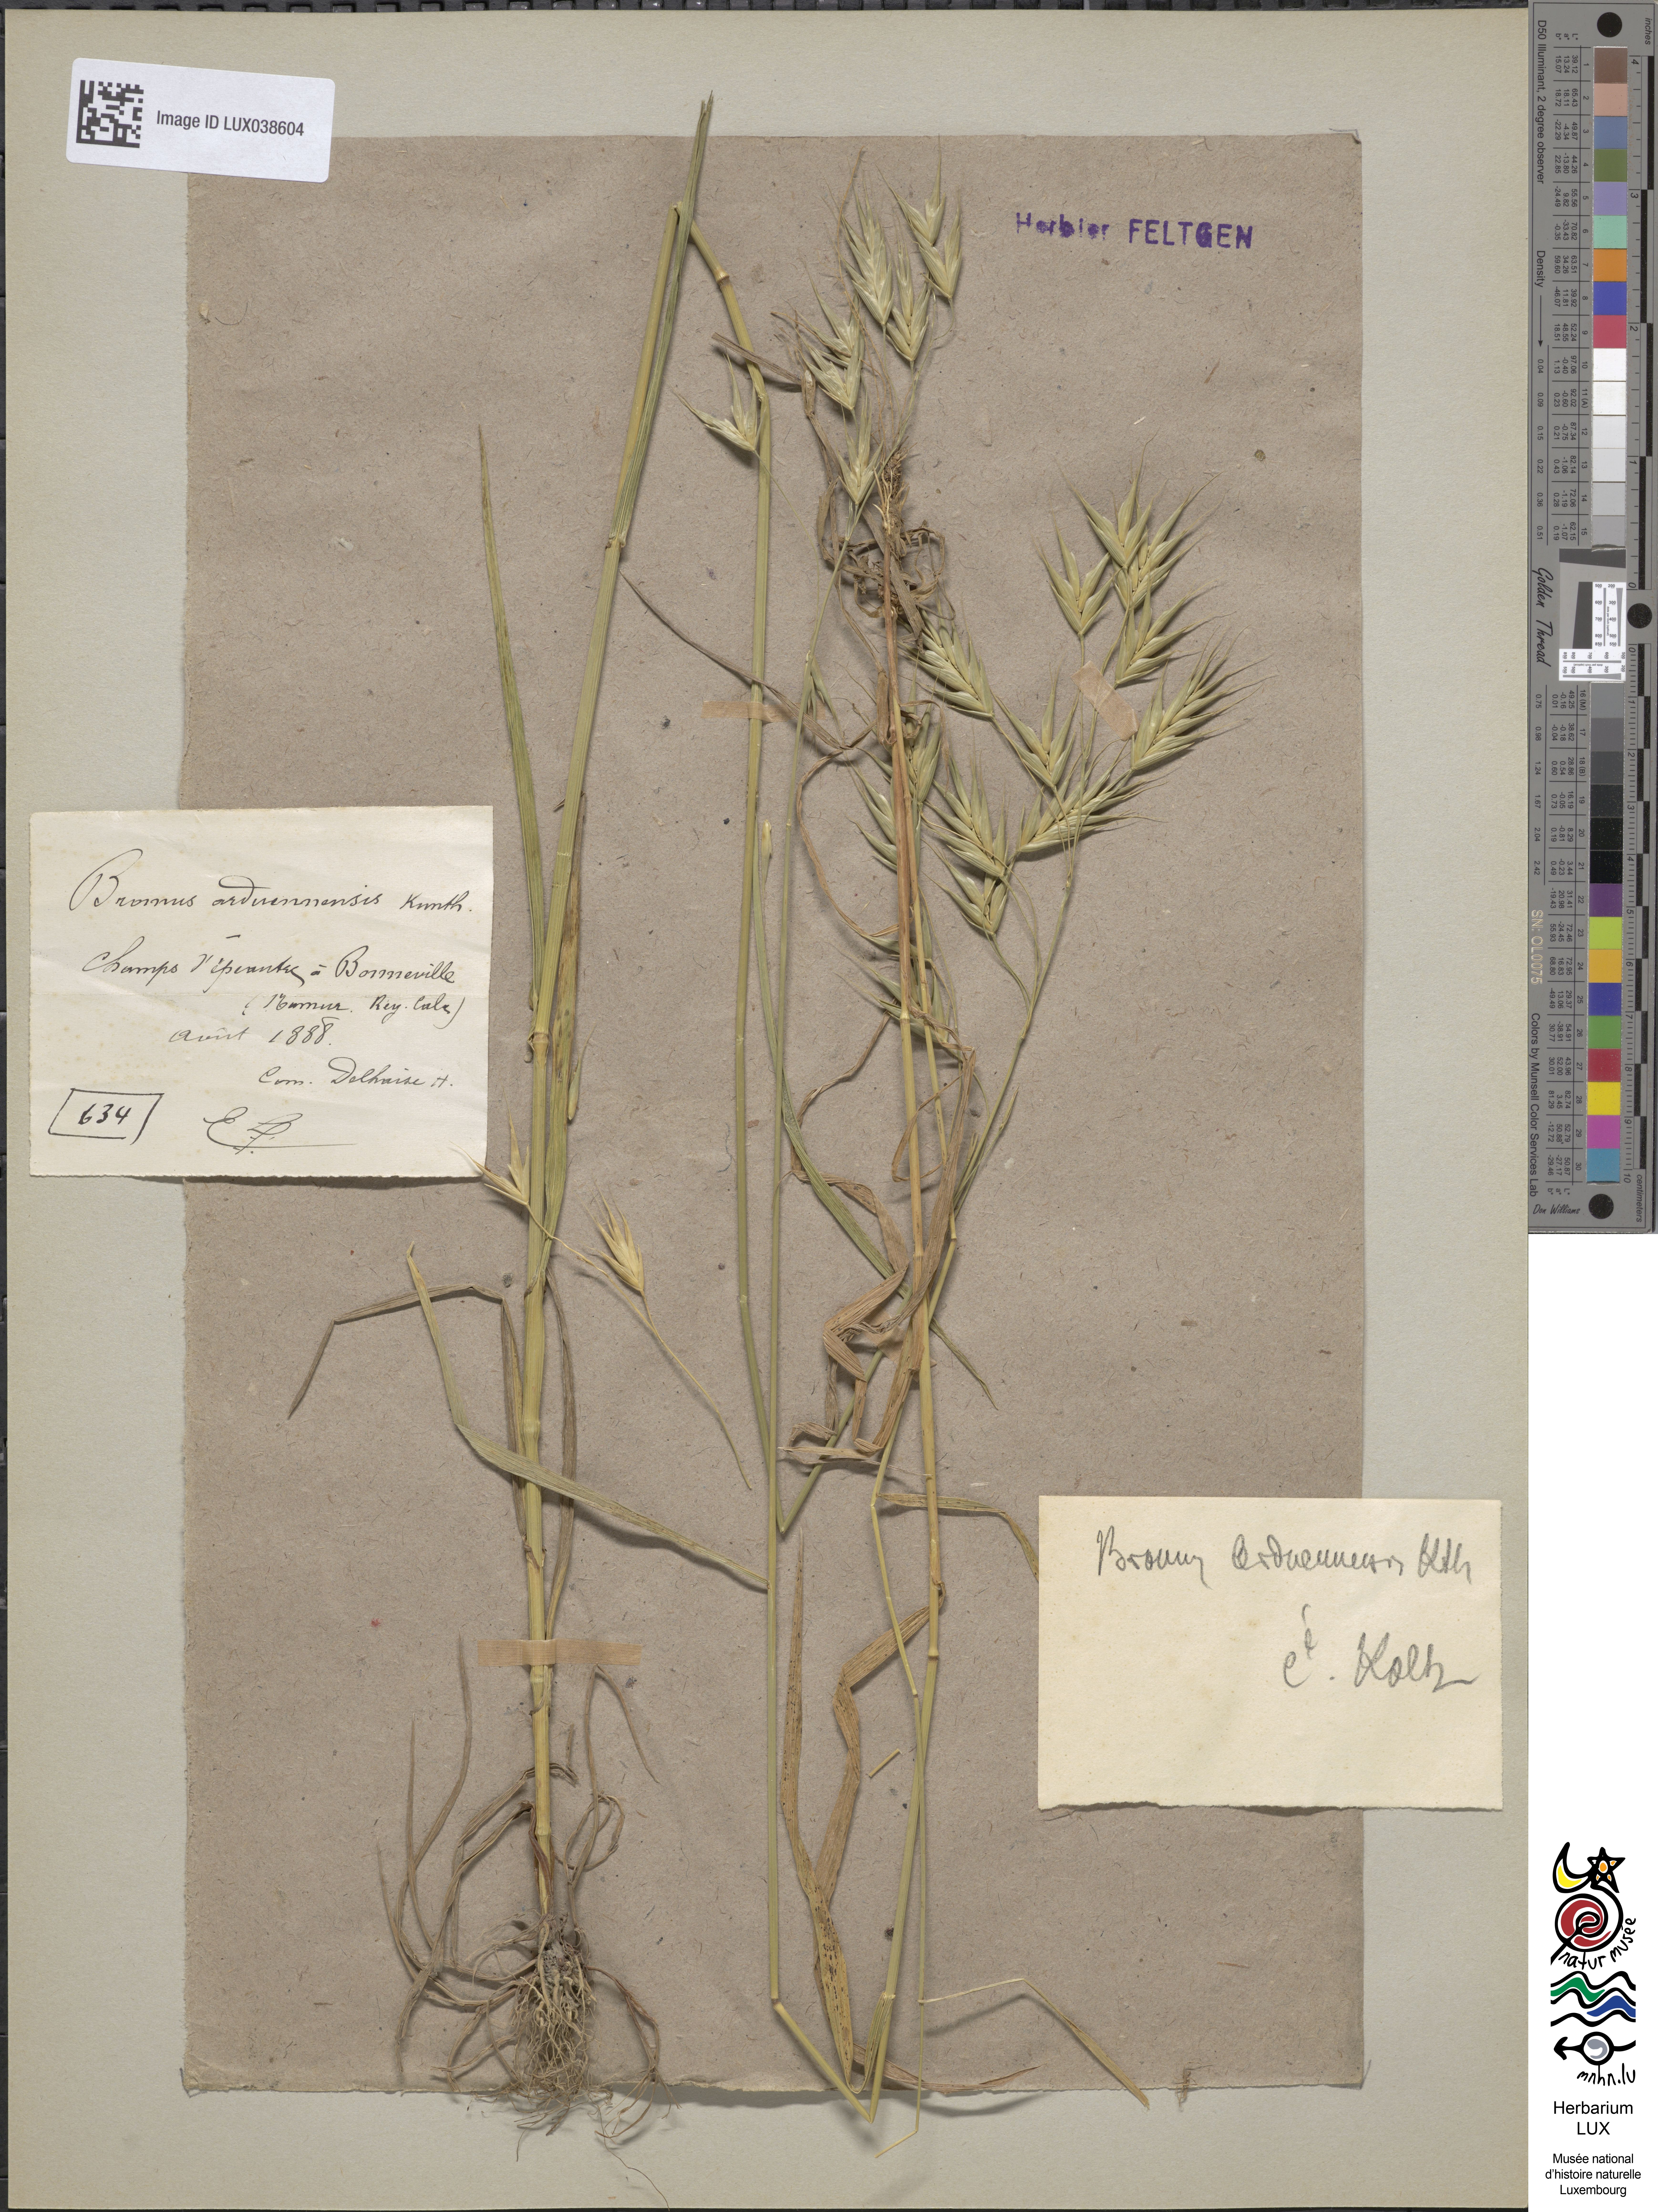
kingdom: Plantae
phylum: Tracheophyta
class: Liliopsida
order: Poales
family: Poaceae
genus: Bromus
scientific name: Bromus bromoideus
